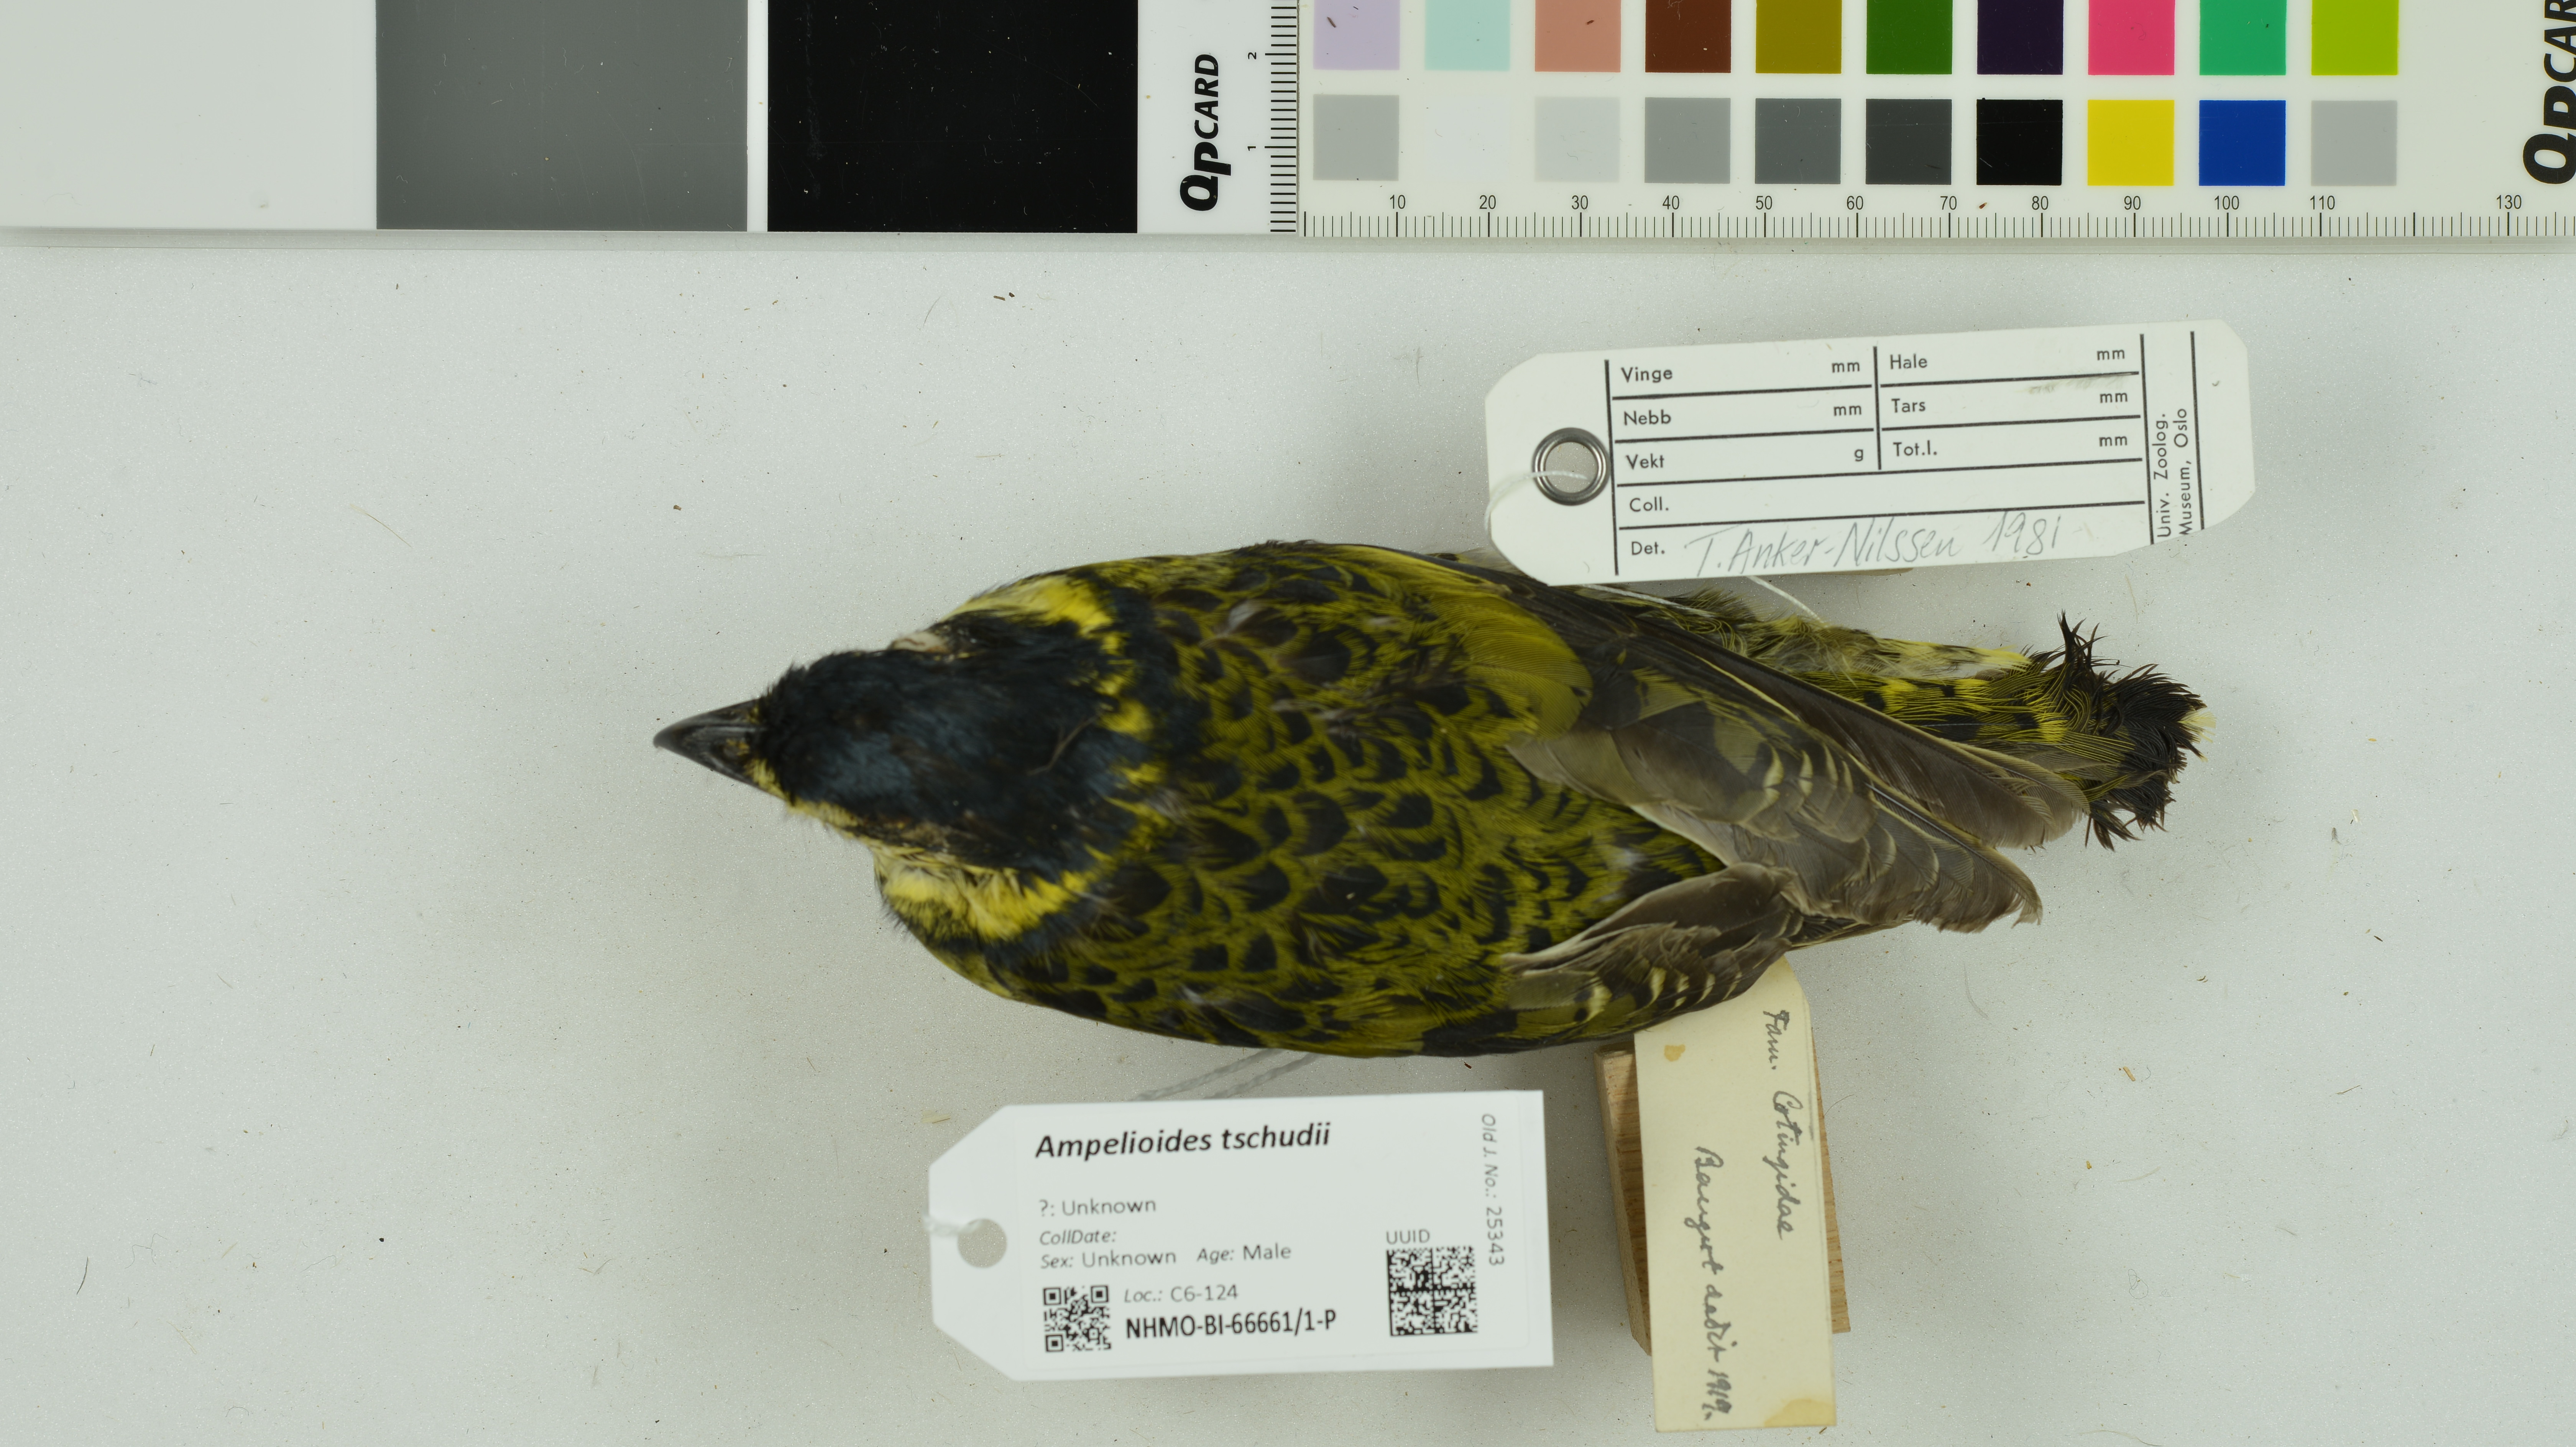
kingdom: Animalia
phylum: Chordata
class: Aves
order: Passeriformes
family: Cotingidae
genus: Ampelioides
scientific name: Ampelioides tschudii
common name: Scaled fruiteater
